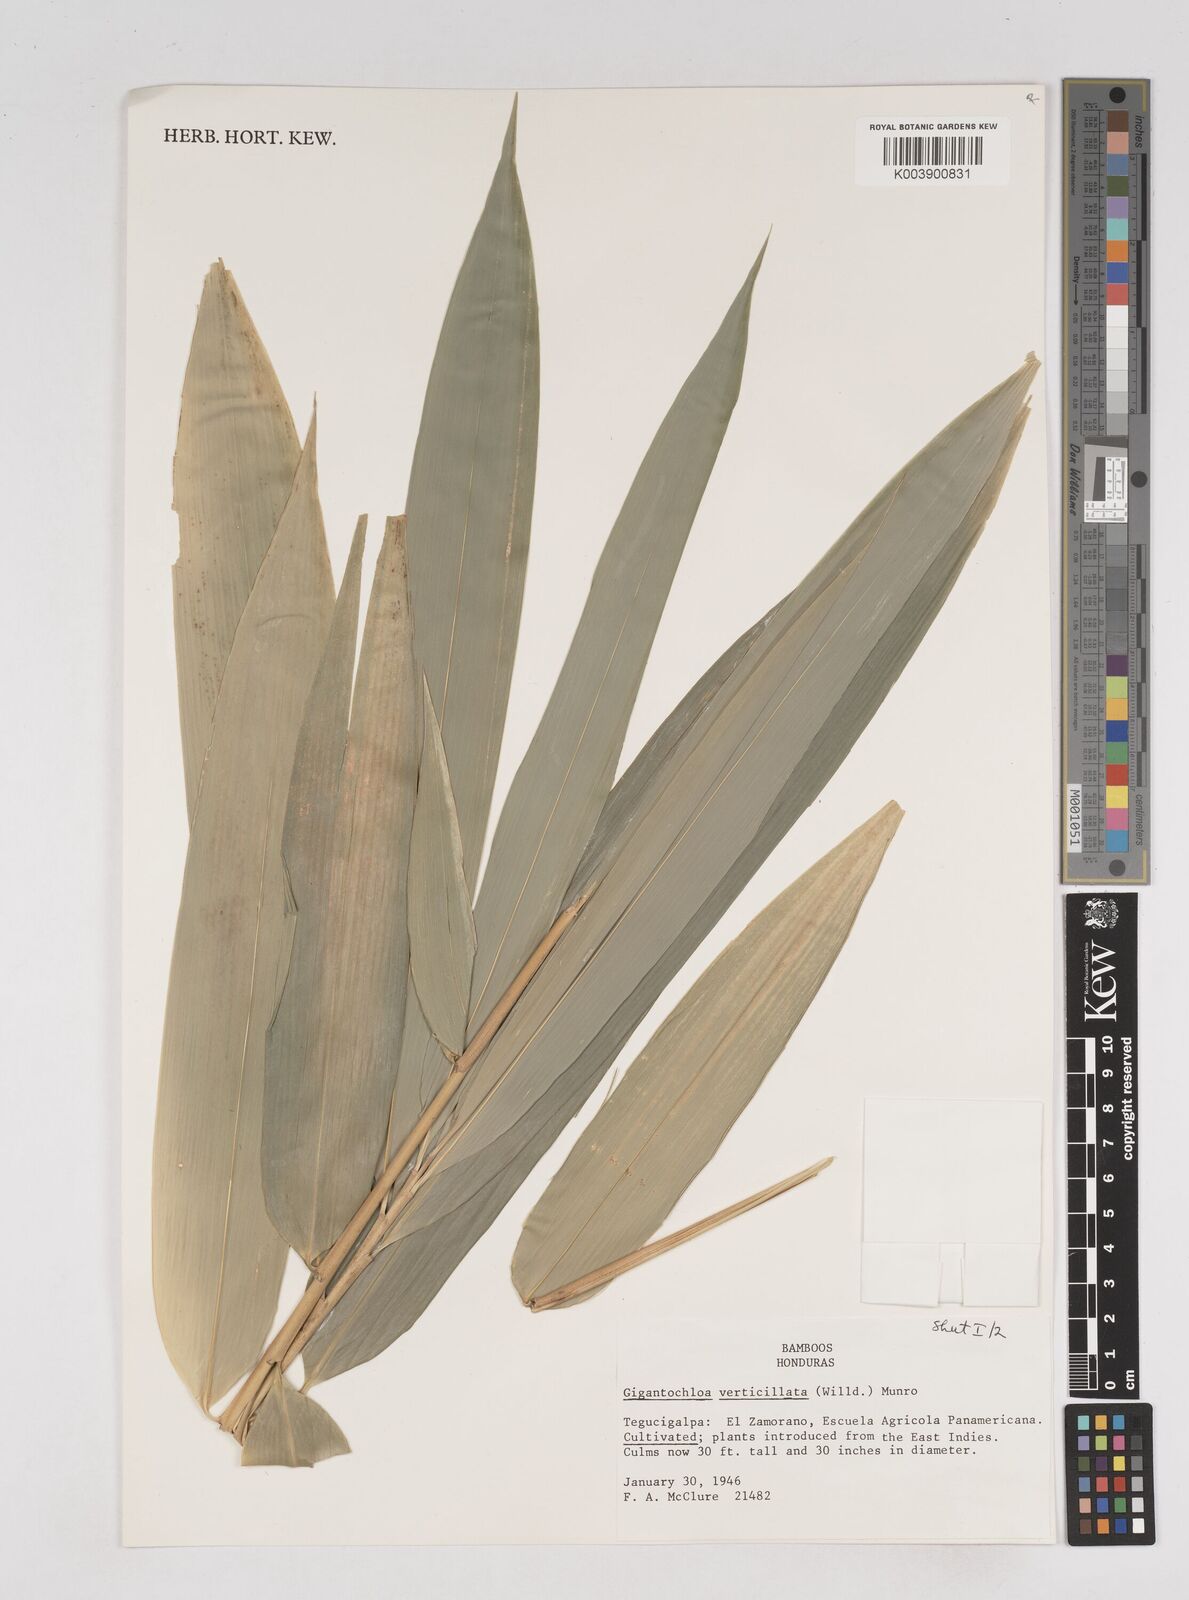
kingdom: Plantae
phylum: Tracheophyta
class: Liliopsida
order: Poales
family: Poaceae
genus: Gigantochloa
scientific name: Gigantochloa verticillata
